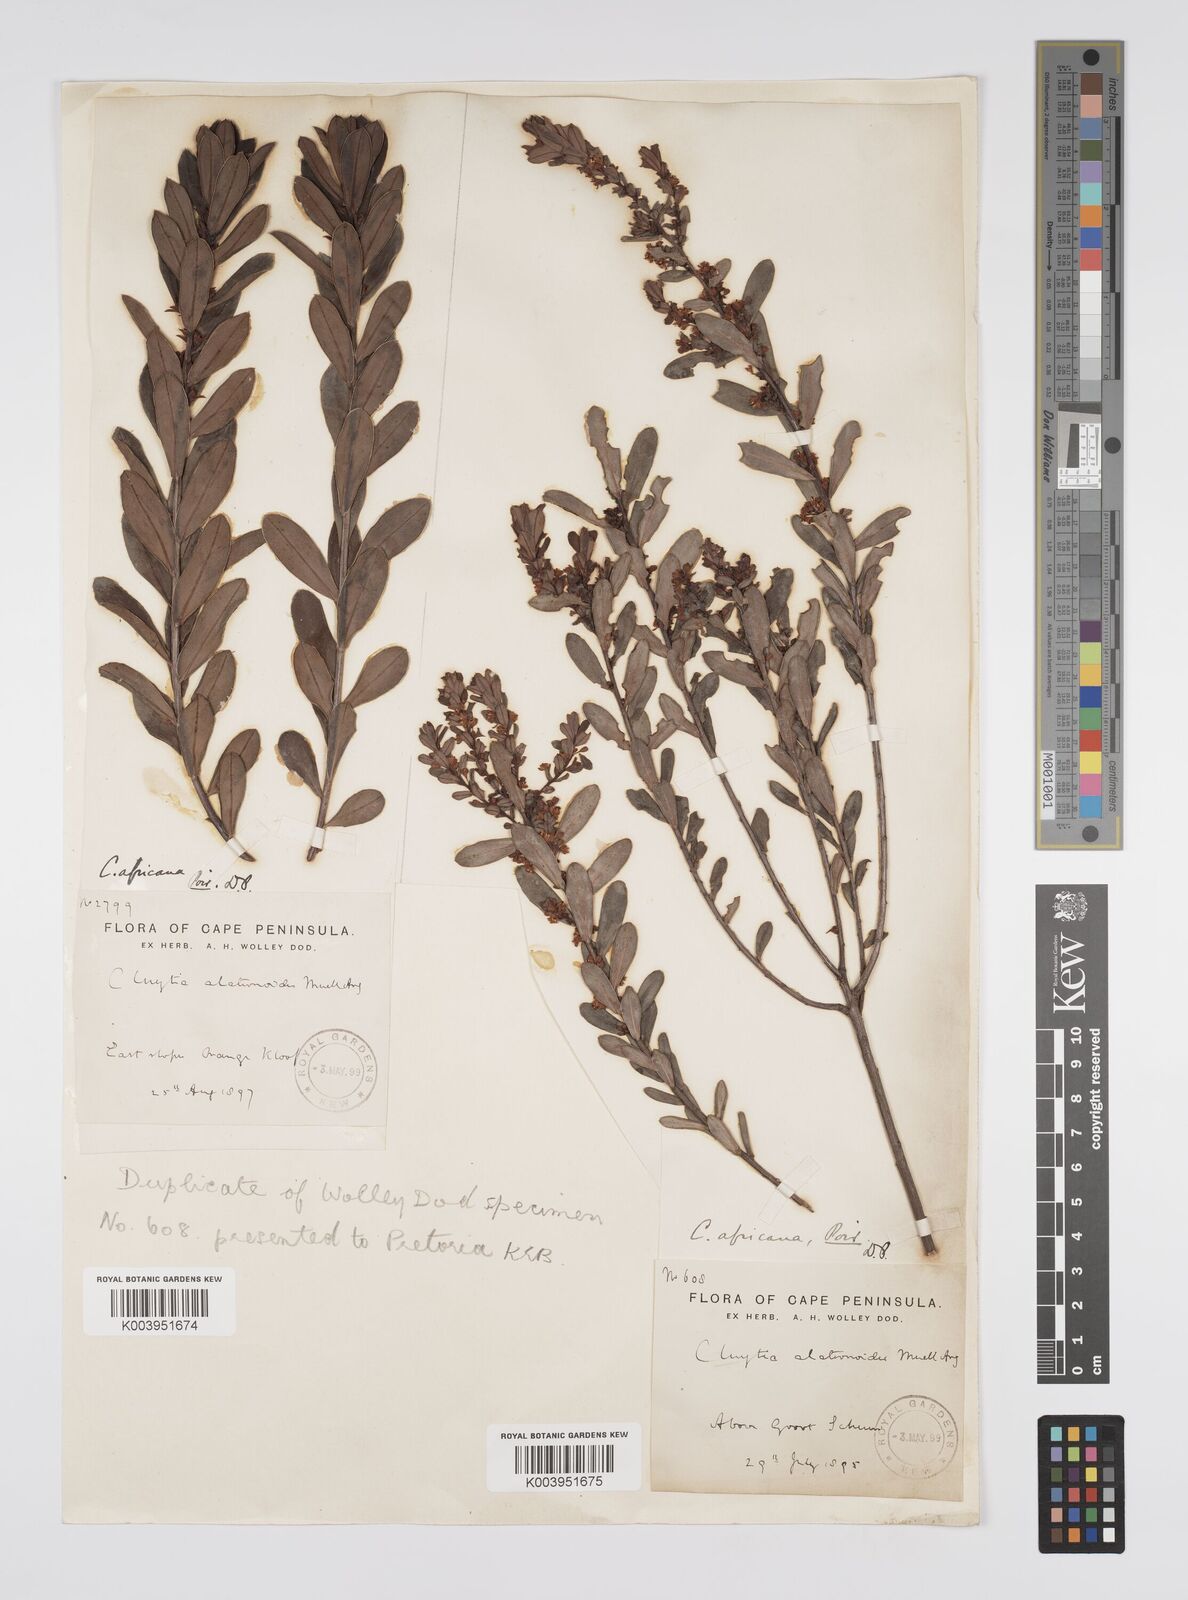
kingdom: Plantae
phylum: Tracheophyta
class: Magnoliopsida
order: Malpighiales
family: Peraceae
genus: Clutia
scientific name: Clutia africana
